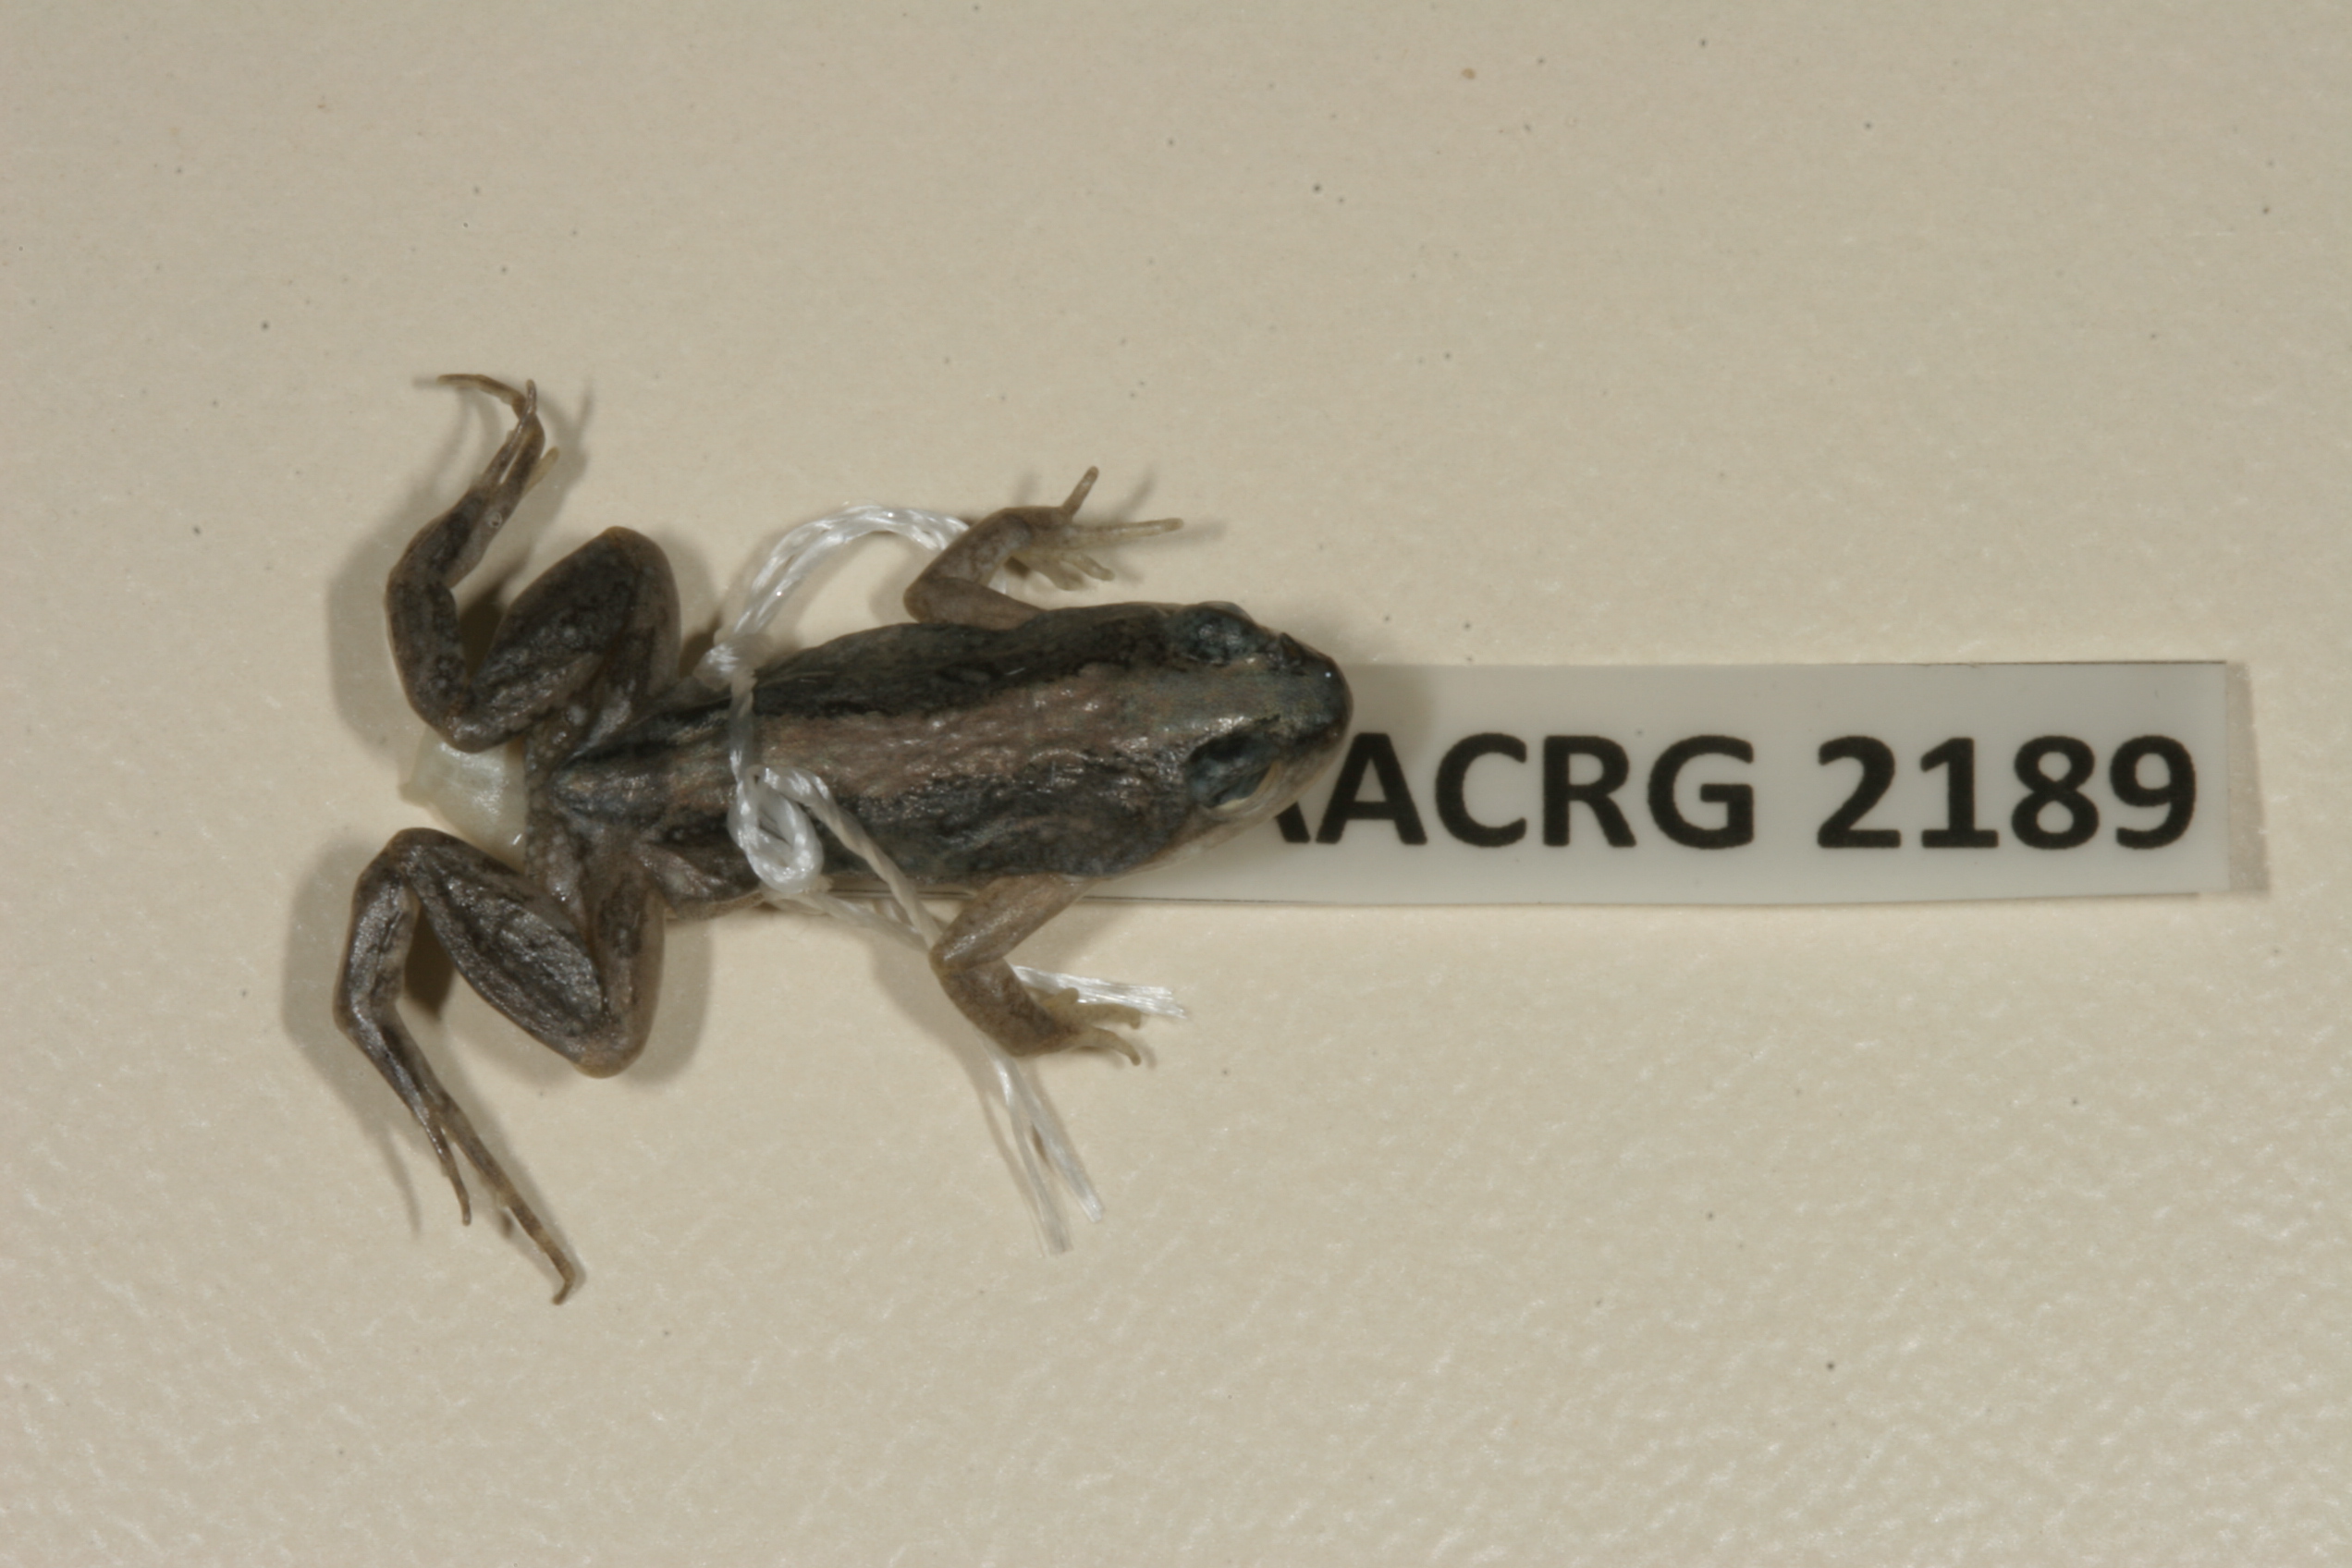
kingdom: Animalia
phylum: Chordata
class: Amphibia
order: Anura
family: Pyxicephalidae
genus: Cacosternum
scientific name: Cacosternum boettgeri
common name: Boettger's frog
